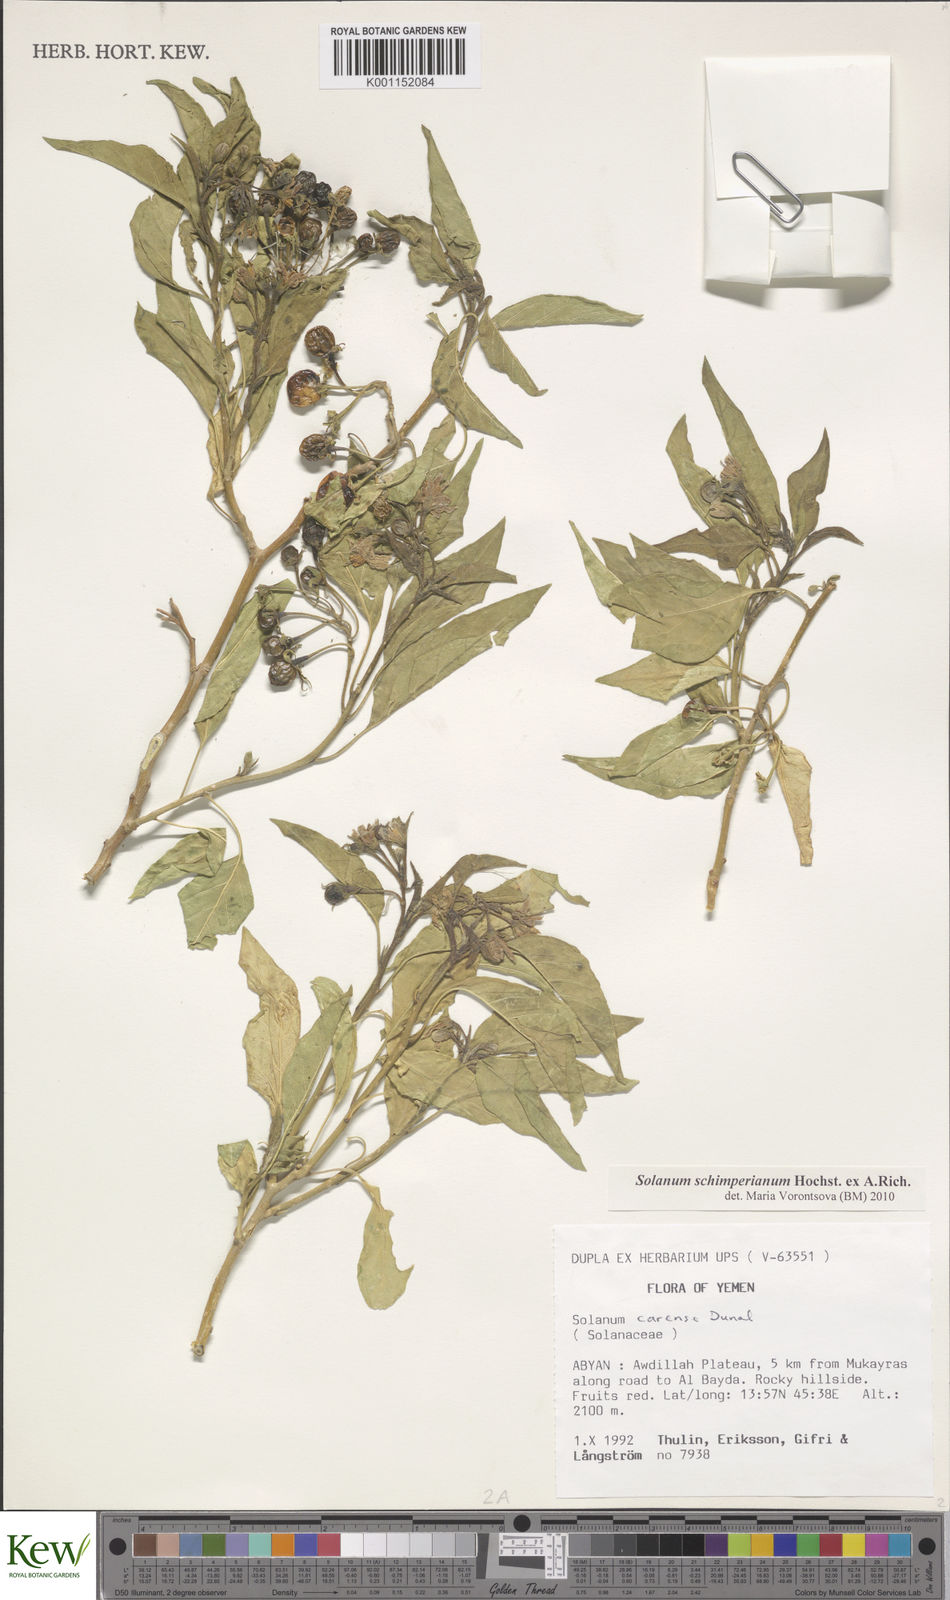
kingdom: Plantae
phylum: Tracheophyta
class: Magnoliopsida
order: Solanales
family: Solanaceae
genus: Solanum
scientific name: Solanum schimperianum
